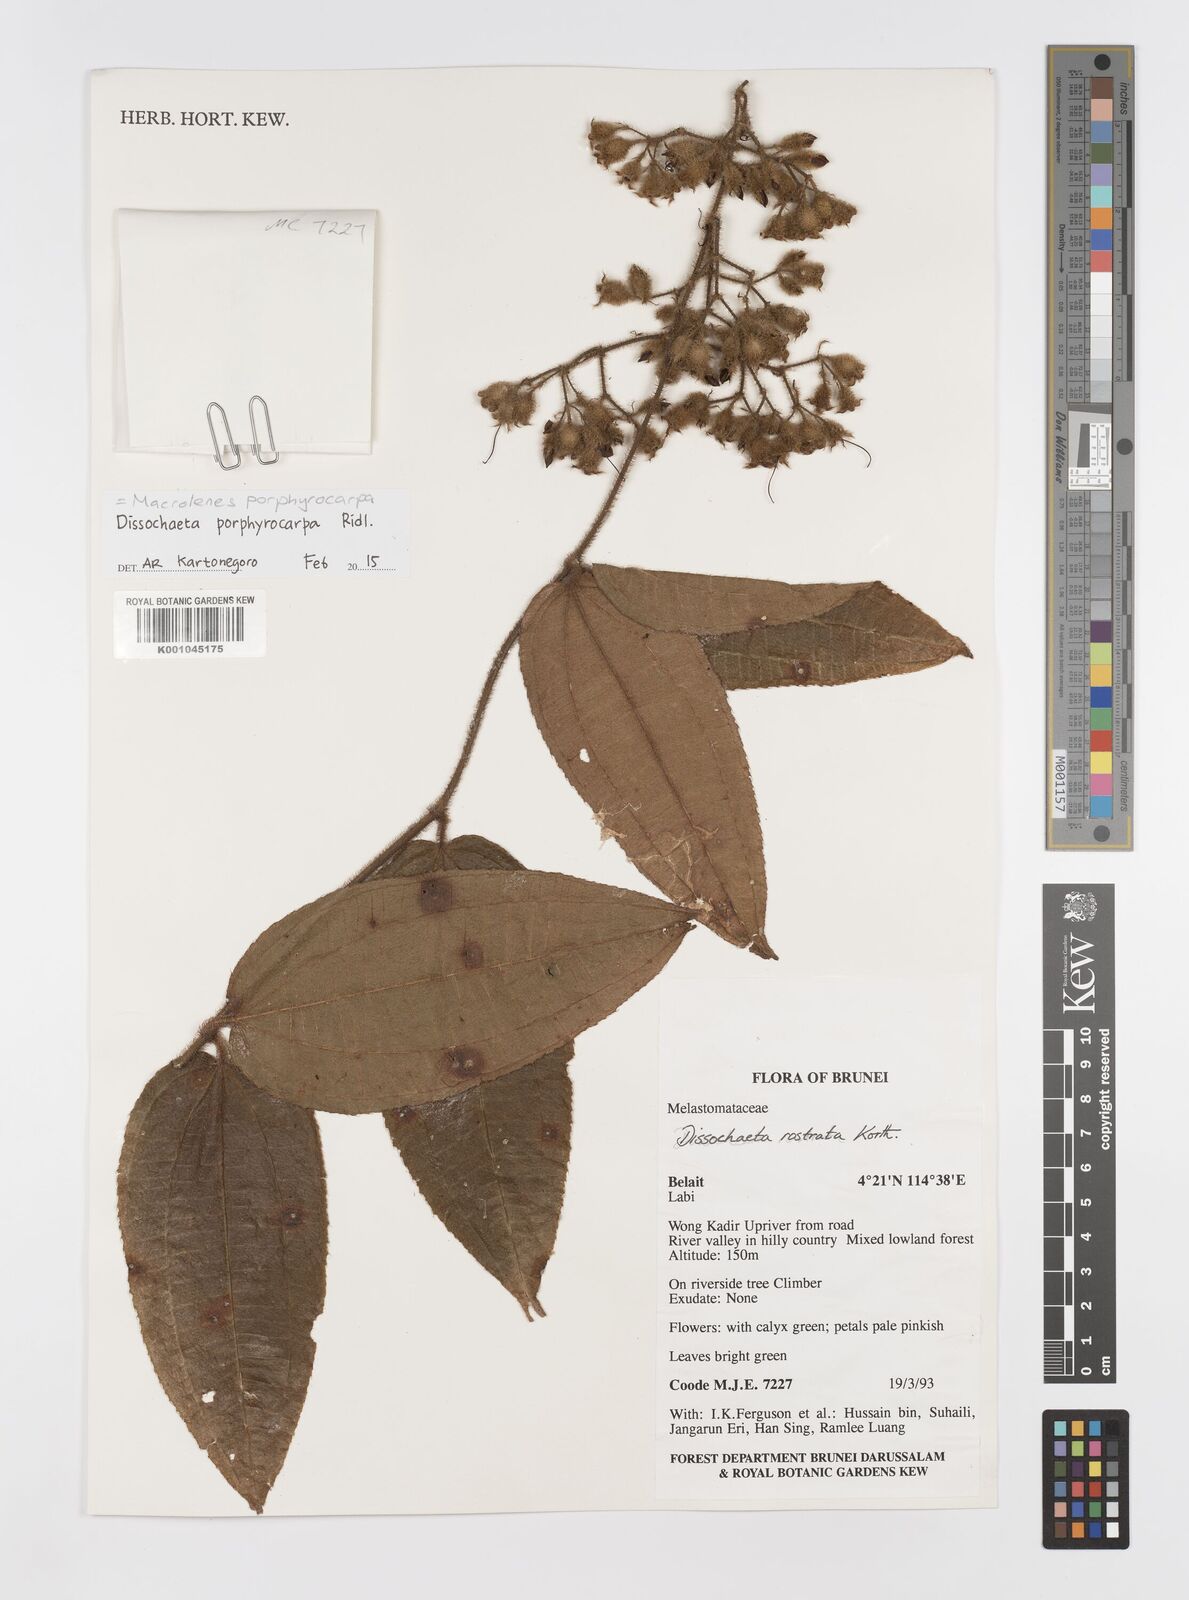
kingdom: Plantae
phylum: Tracheophyta
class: Magnoliopsida
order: Myrtales
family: Melastomataceae
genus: Macrolenes
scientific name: Macrolenes porphyrocarpa
